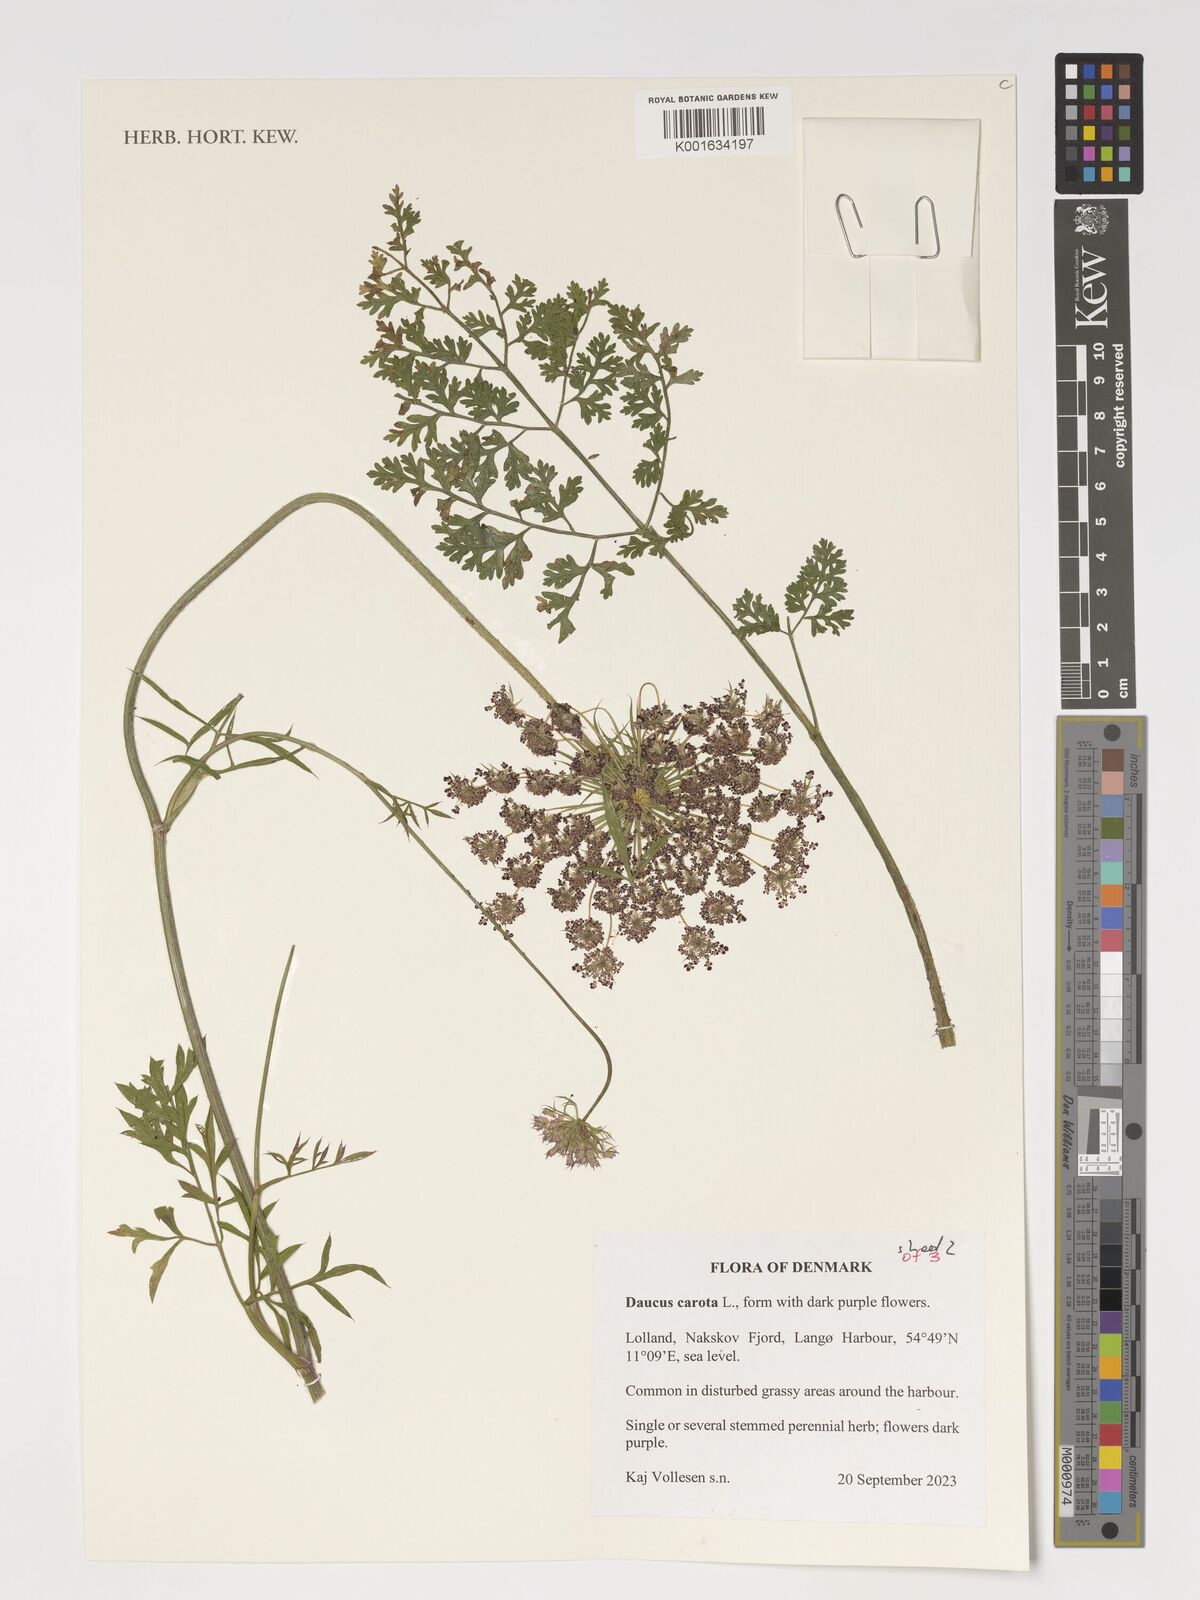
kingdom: Plantae
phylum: Tracheophyta
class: Magnoliopsida
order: Apiales
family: Apiaceae
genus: Daucus
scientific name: Daucus carota
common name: Wild carrot
